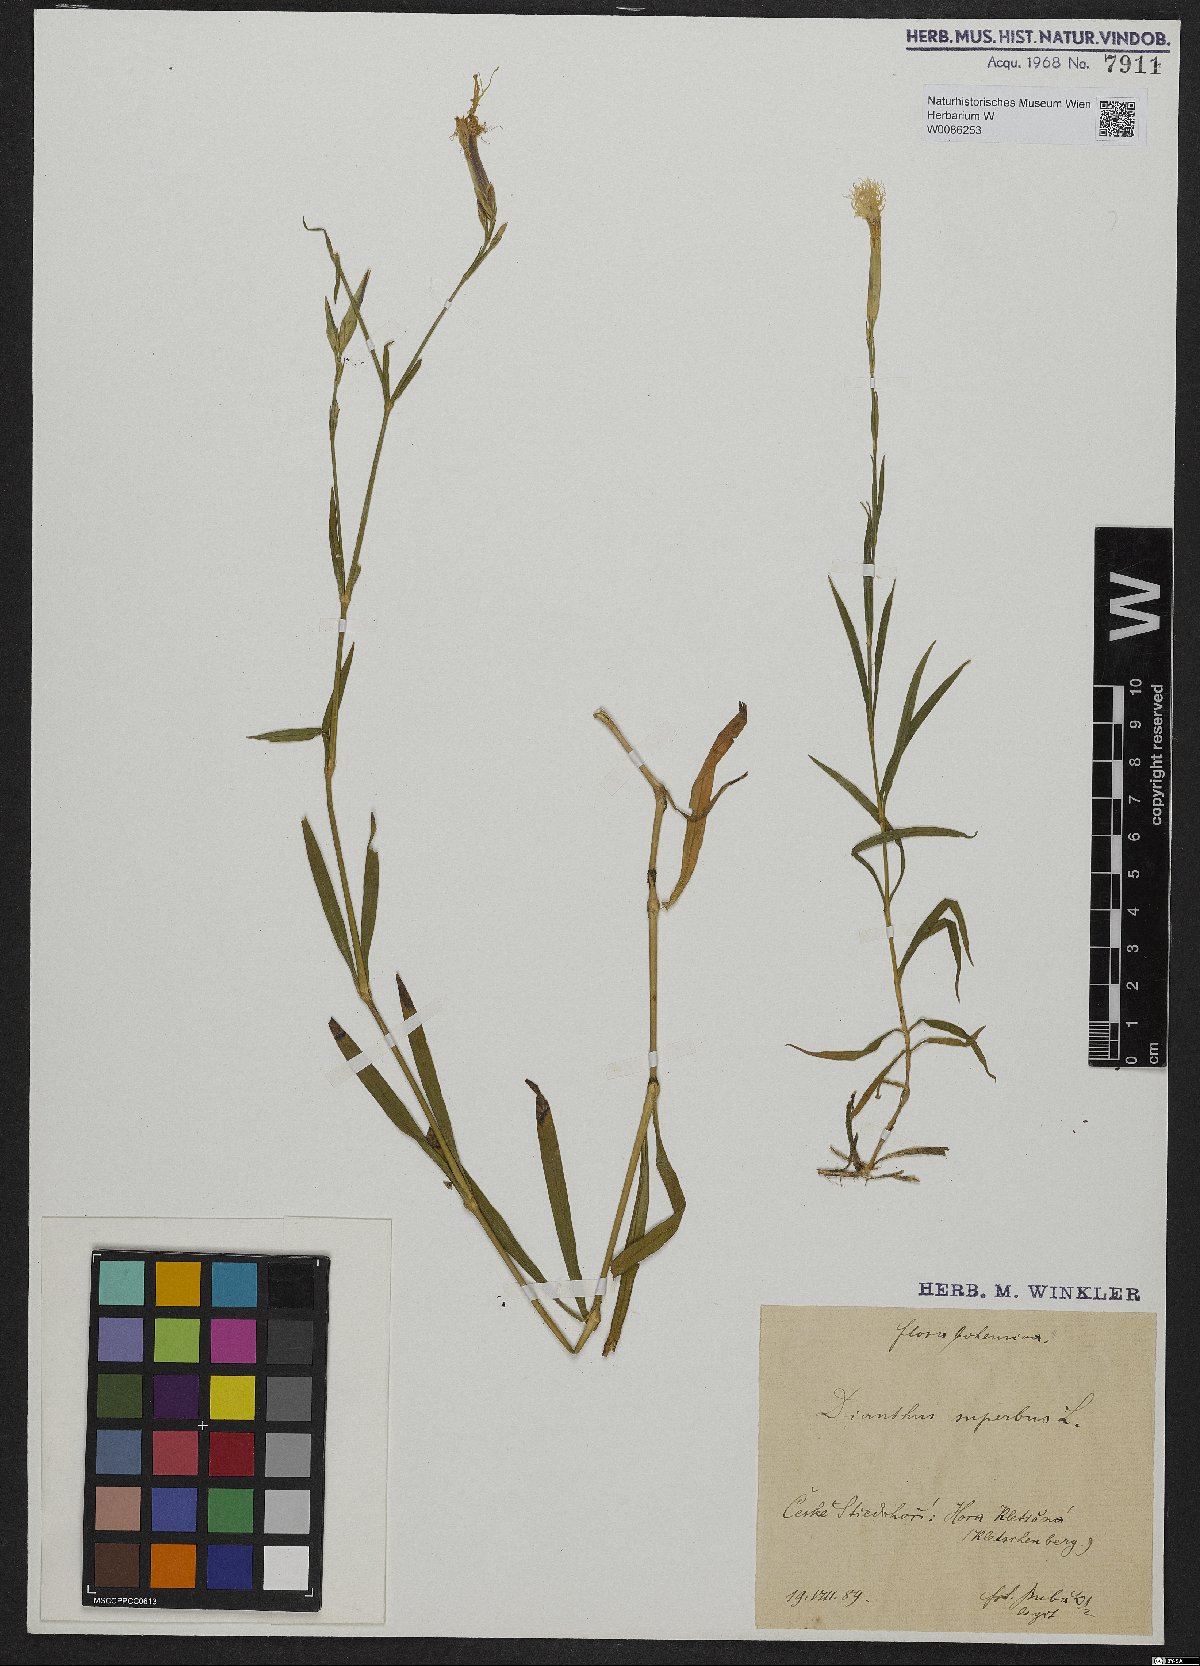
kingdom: Plantae
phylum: Tracheophyta
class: Magnoliopsida
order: Caryophyllales
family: Caryophyllaceae
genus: Dianthus
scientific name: Dianthus superbus
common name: Fringed pink
